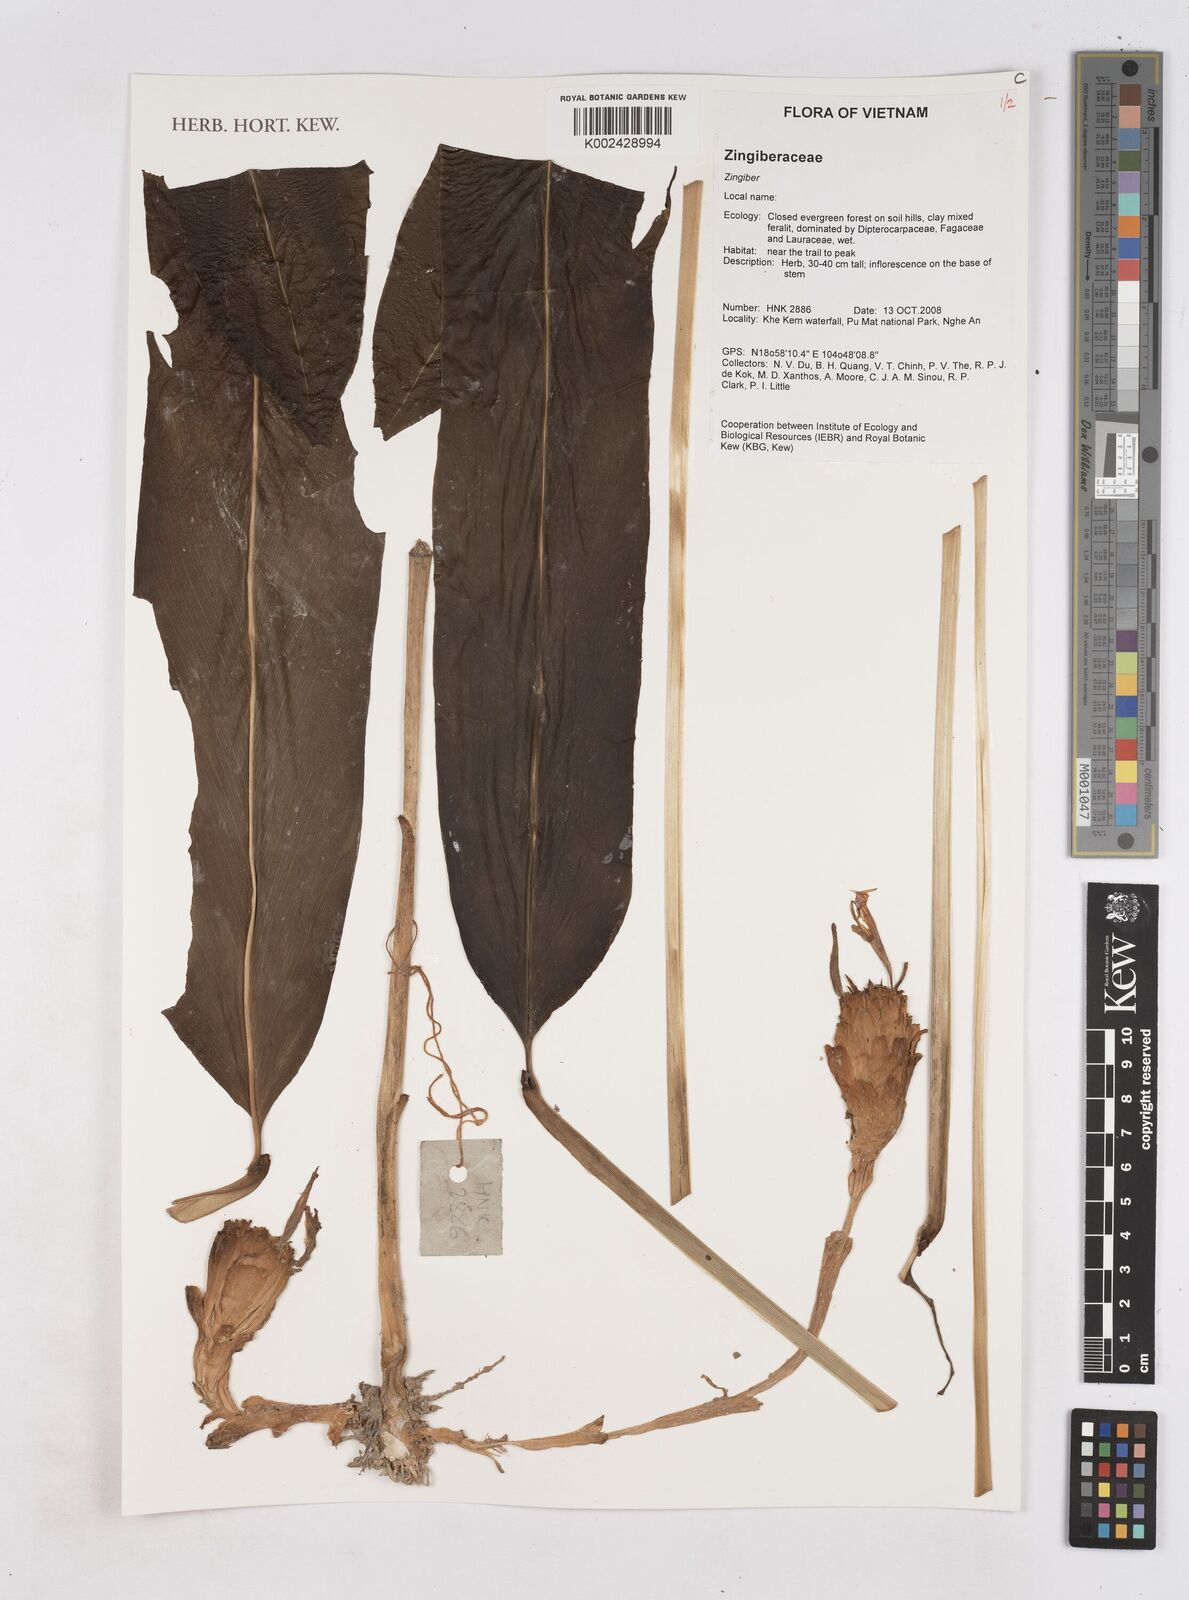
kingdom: Plantae
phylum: Tracheophyta
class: Liliopsida
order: Zingiberales
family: Zingiberaceae
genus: Zingiber
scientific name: Zingiber
